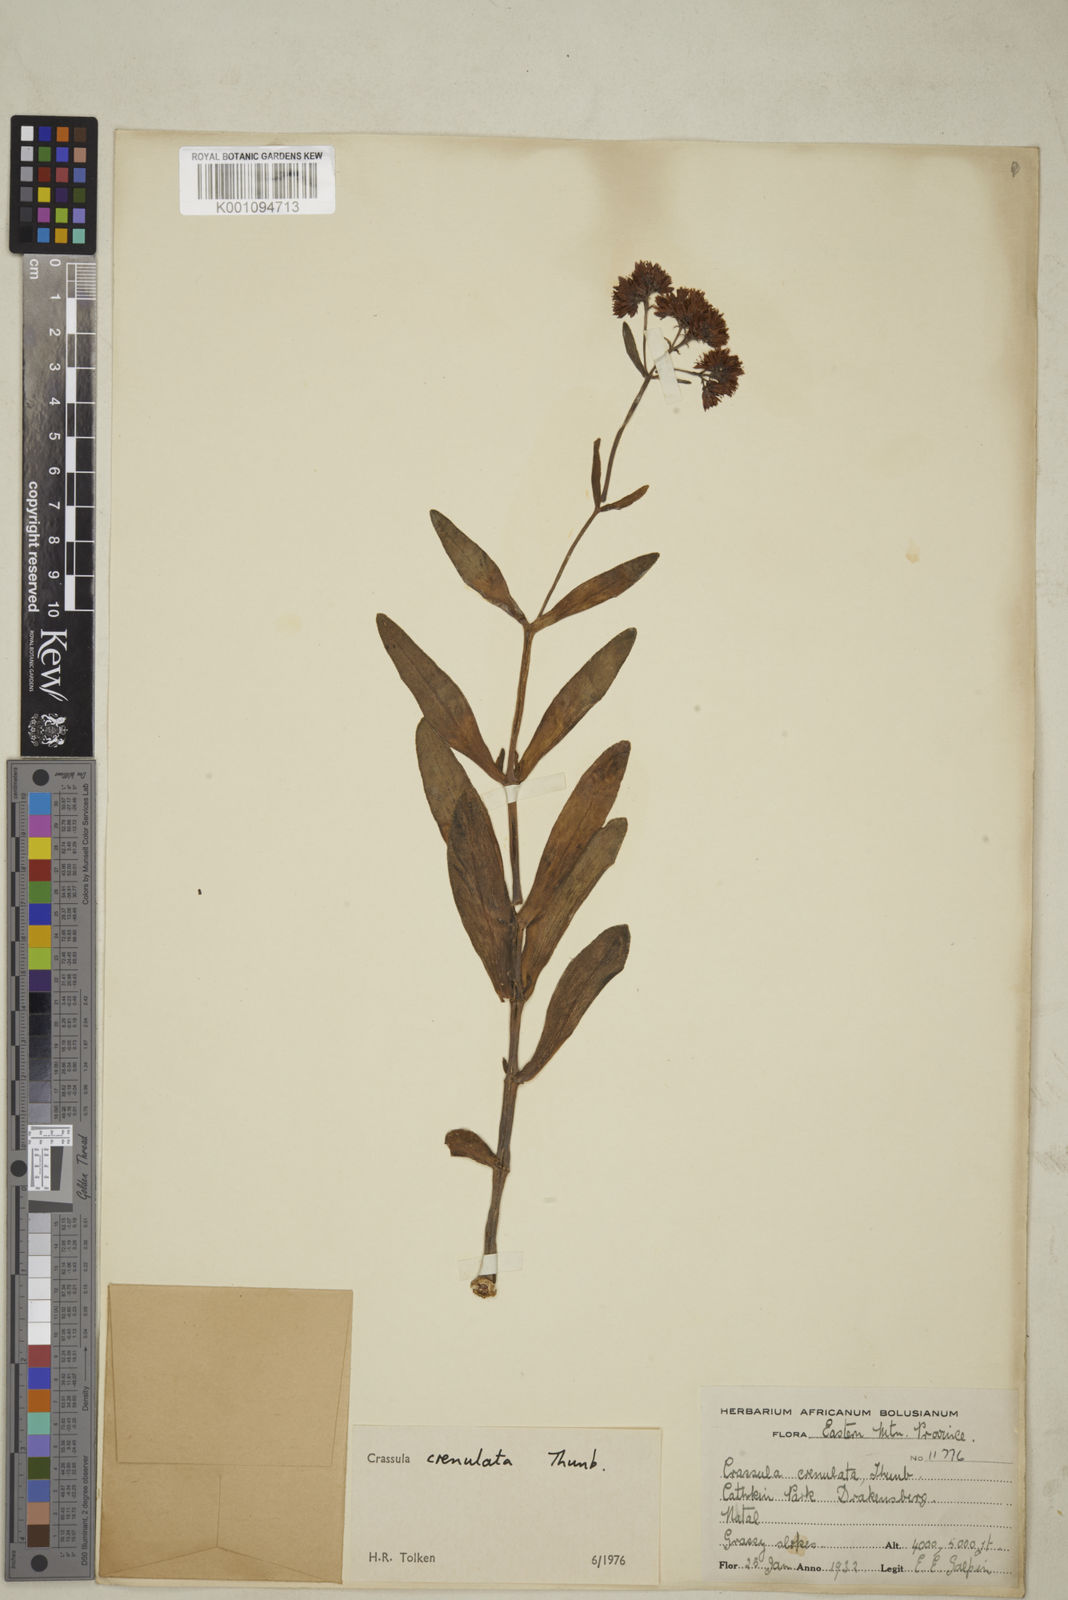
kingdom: Plantae
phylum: Tracheophyta
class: Magnoliopsida
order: Saxifragales
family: Crassulaceae
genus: Crassula
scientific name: Crassula crenulata
